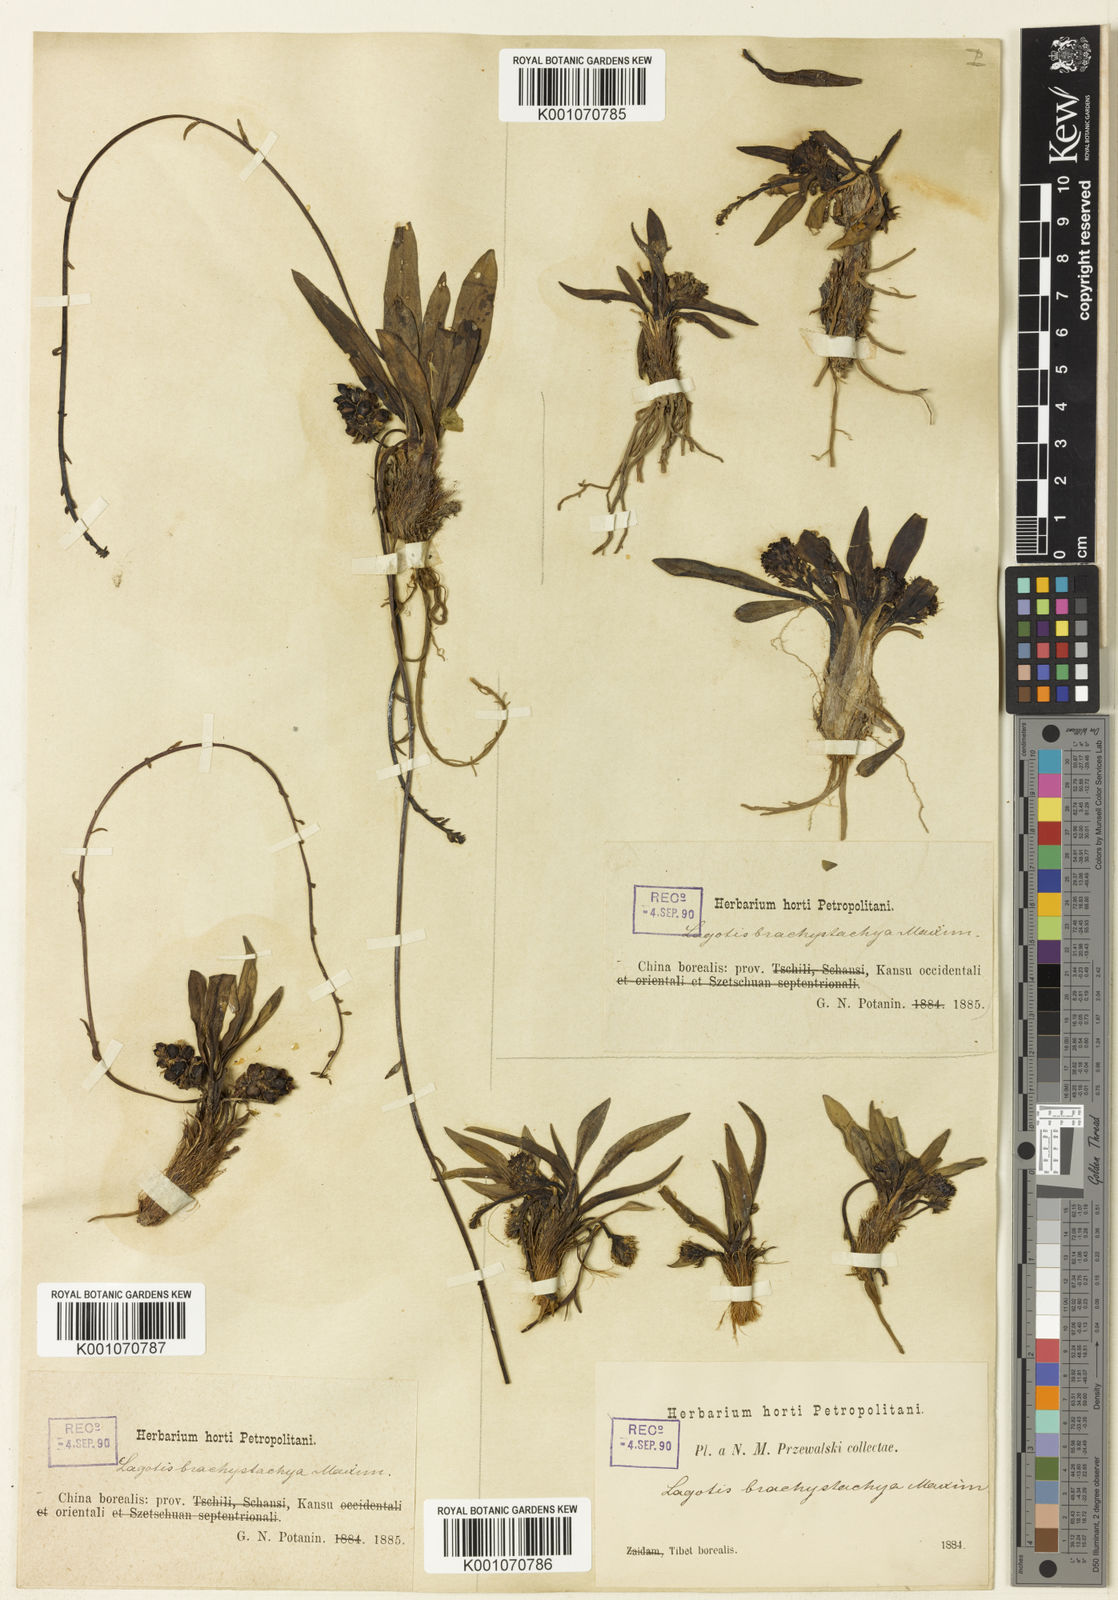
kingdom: Plantae
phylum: Tracheophyta
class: Magnoliopsida
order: Lamiales
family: Plantaginaceae
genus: Lagotis
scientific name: Lagotis brachystachya
